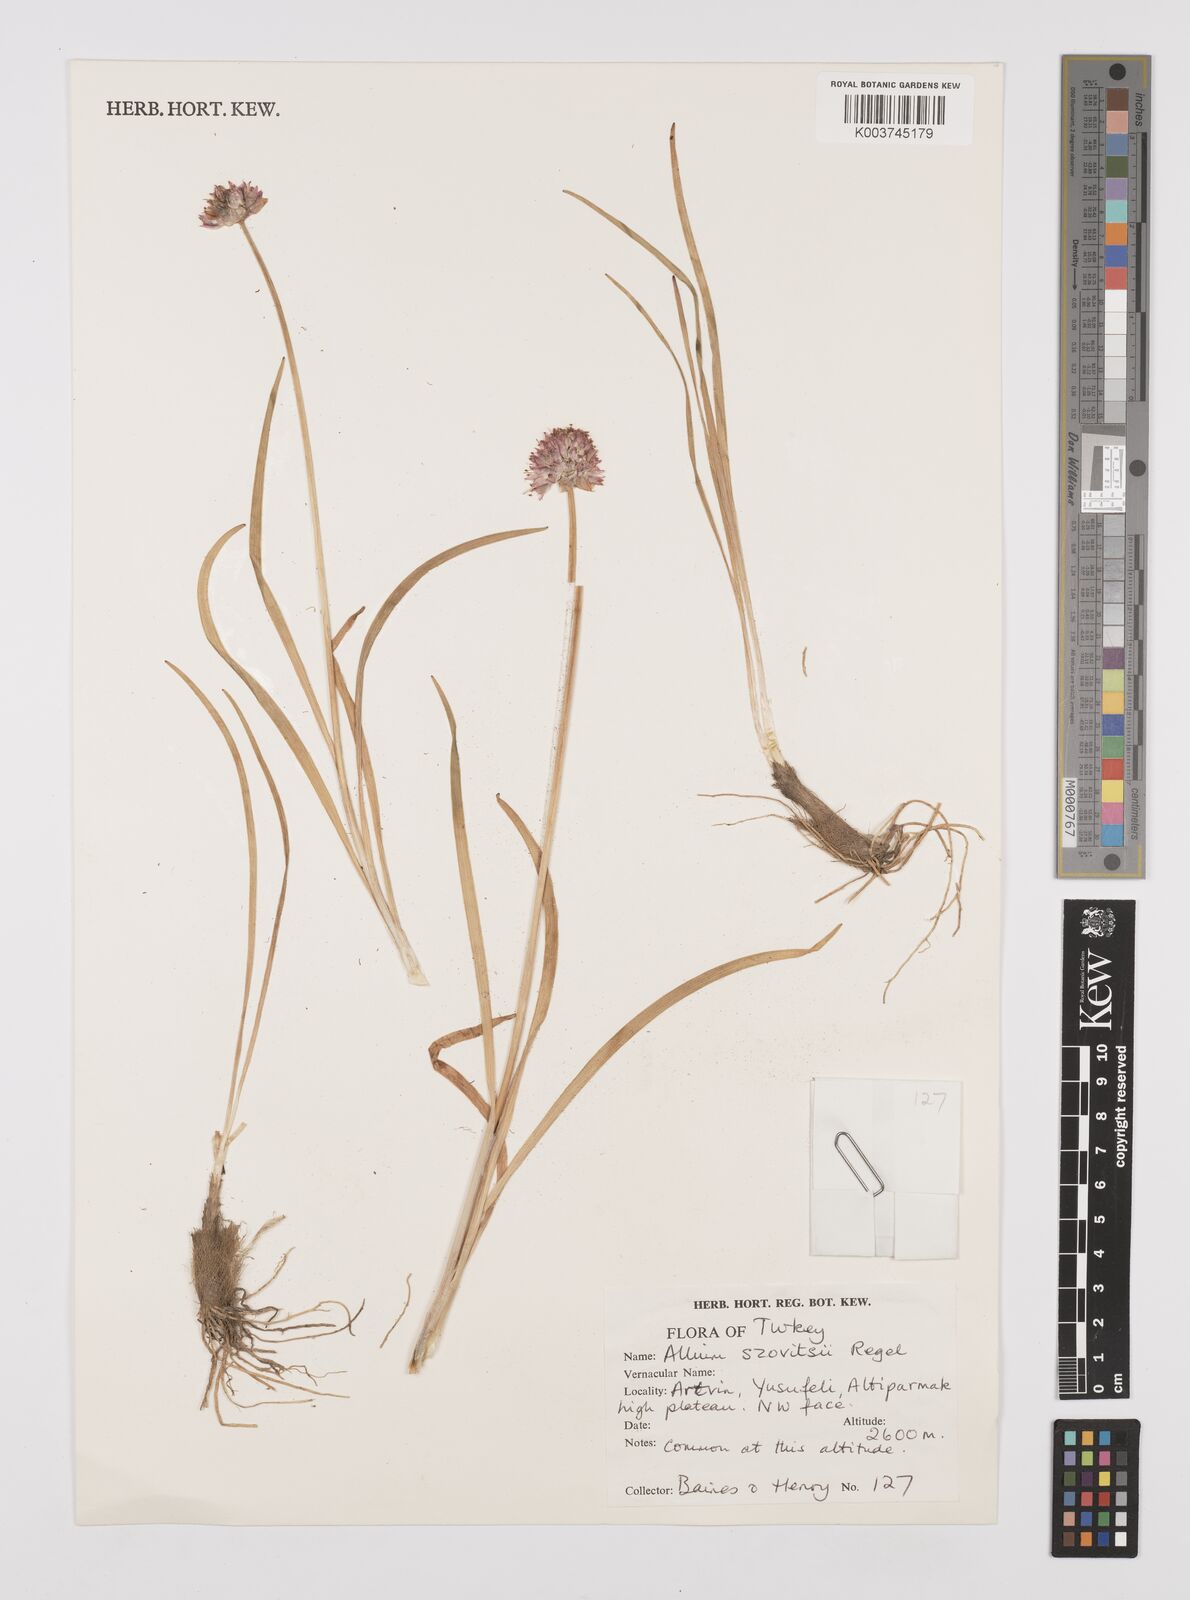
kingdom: Plantae
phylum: Tracheophyta
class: Liliopsida
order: Asparagales
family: Amaryllidaceae
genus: Allium
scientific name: Allium szovitsii
